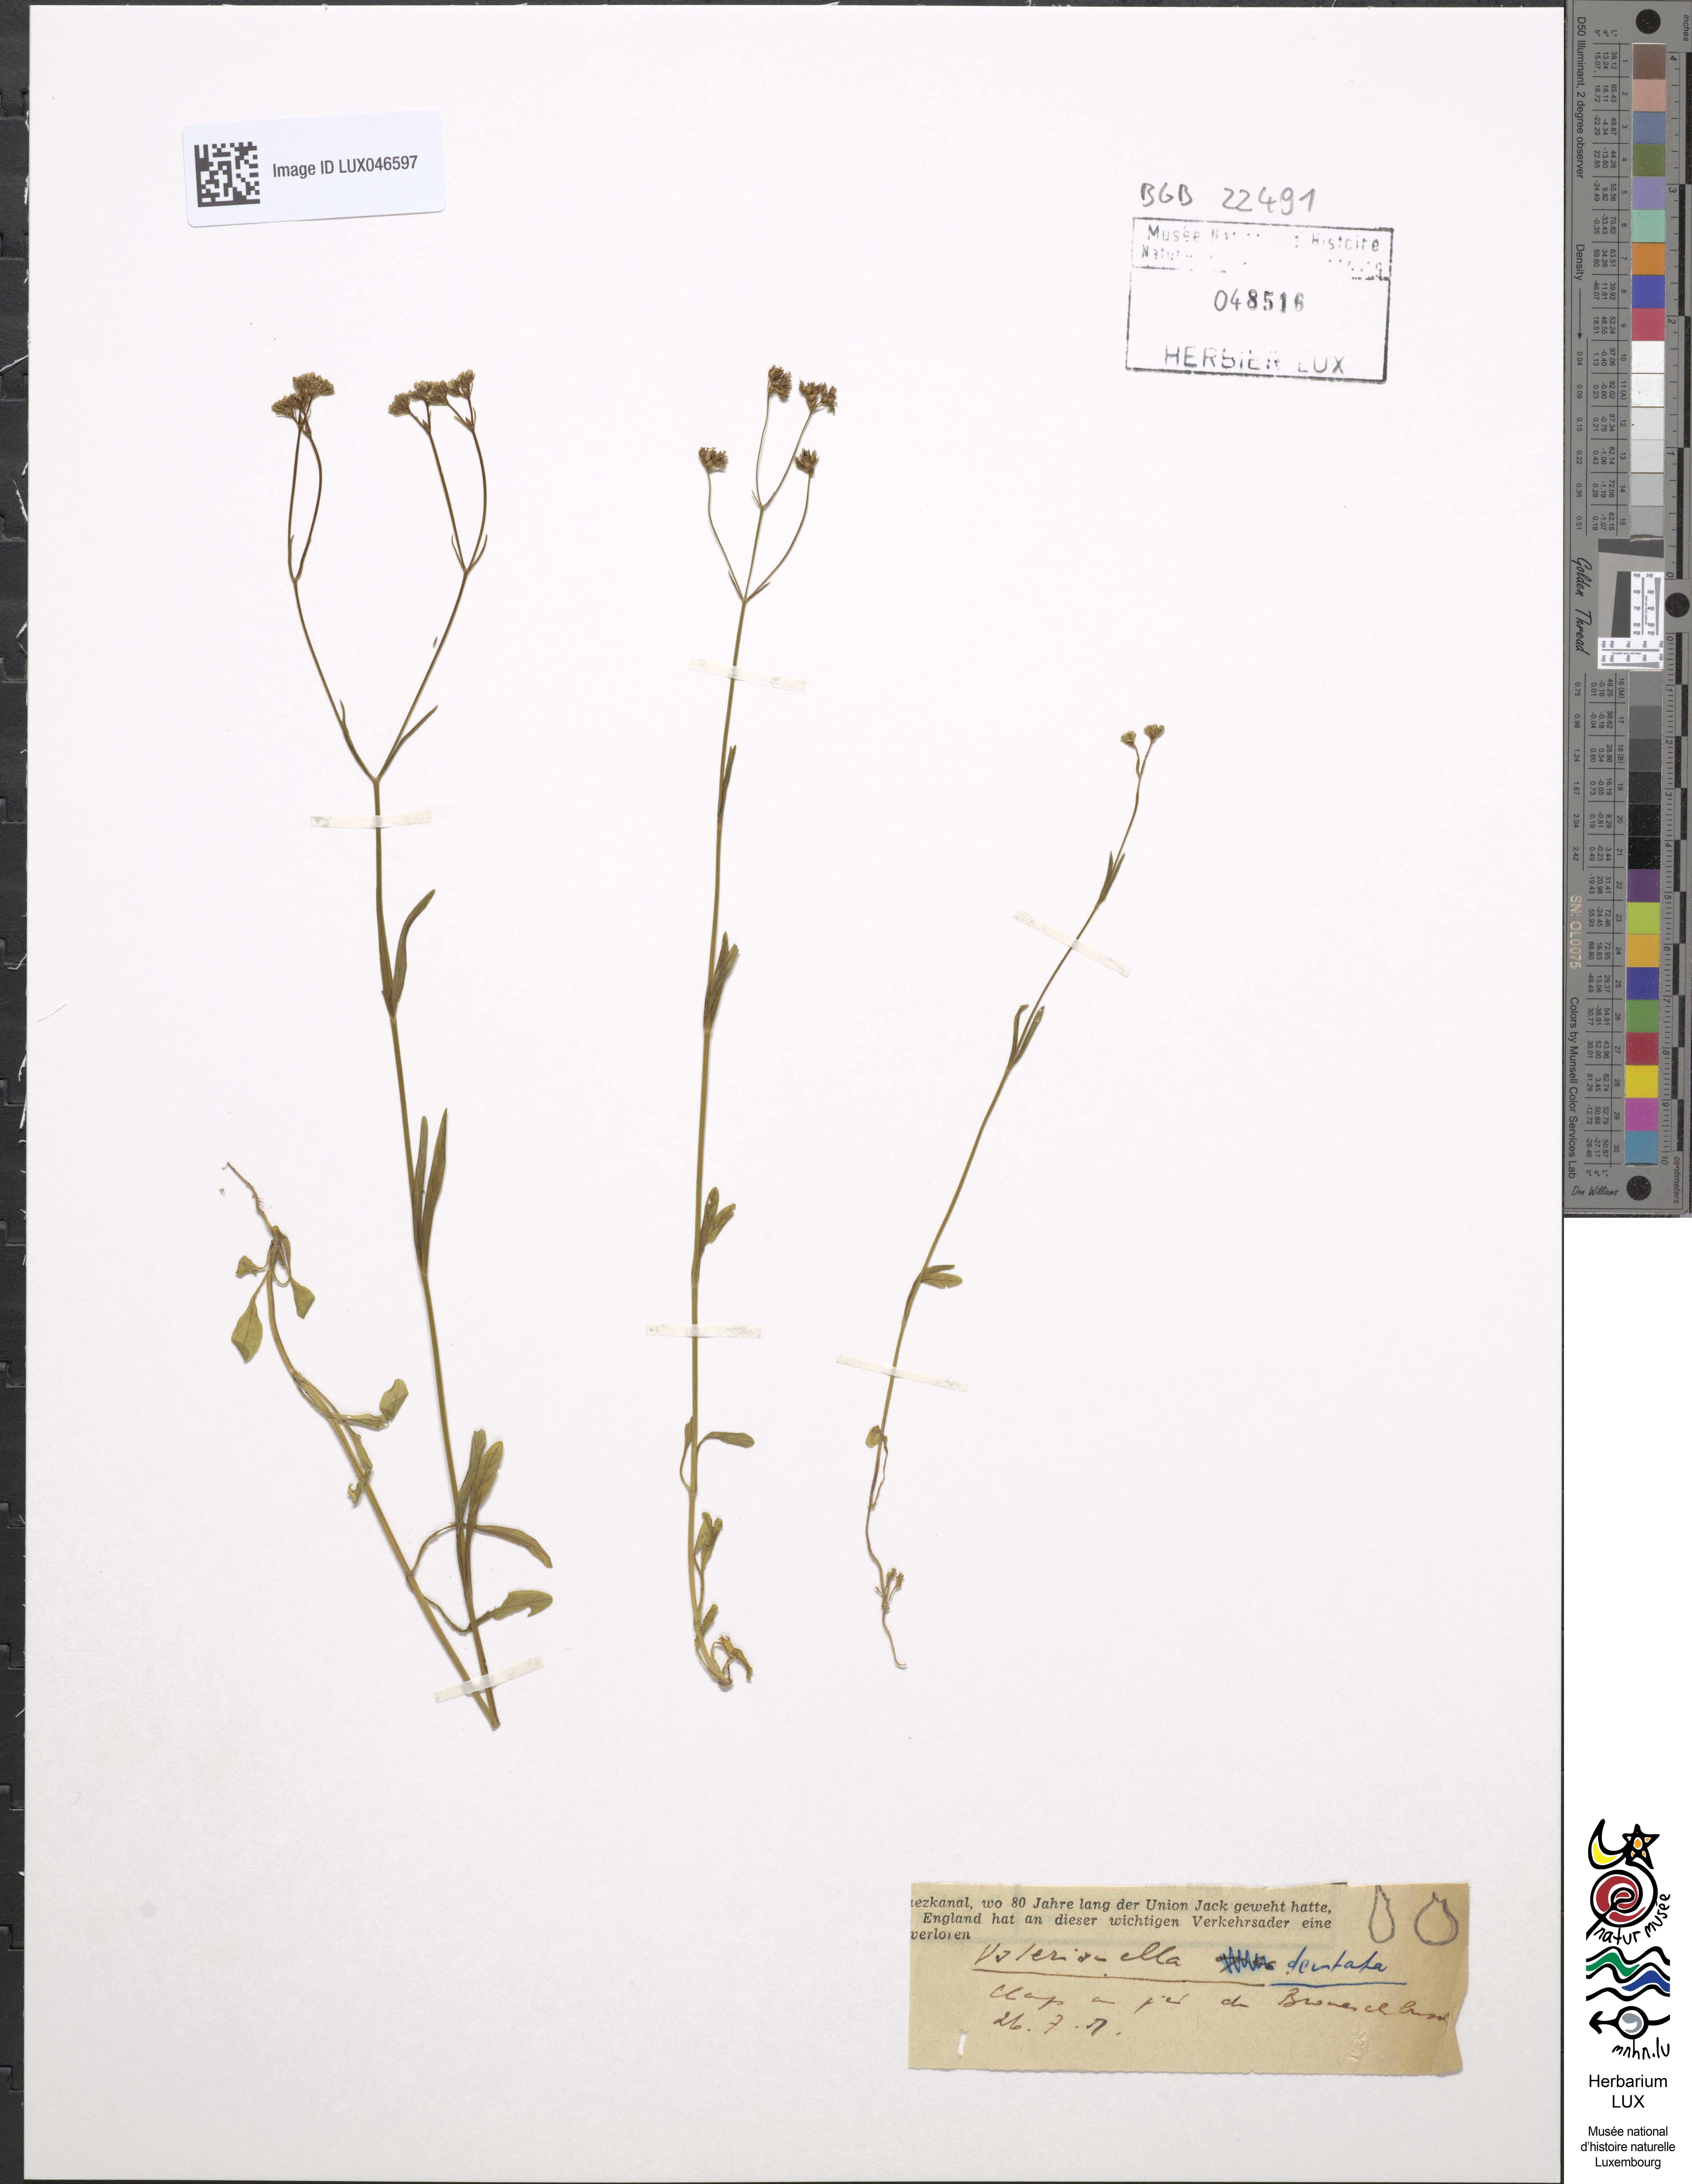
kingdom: Plantae
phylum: Tracheophyta
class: Magnoliopsida
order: Dipsacales
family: Caprifoliaceae
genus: Valerianella
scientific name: Valerianella dentata
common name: Narrow-fruited cornsalad
